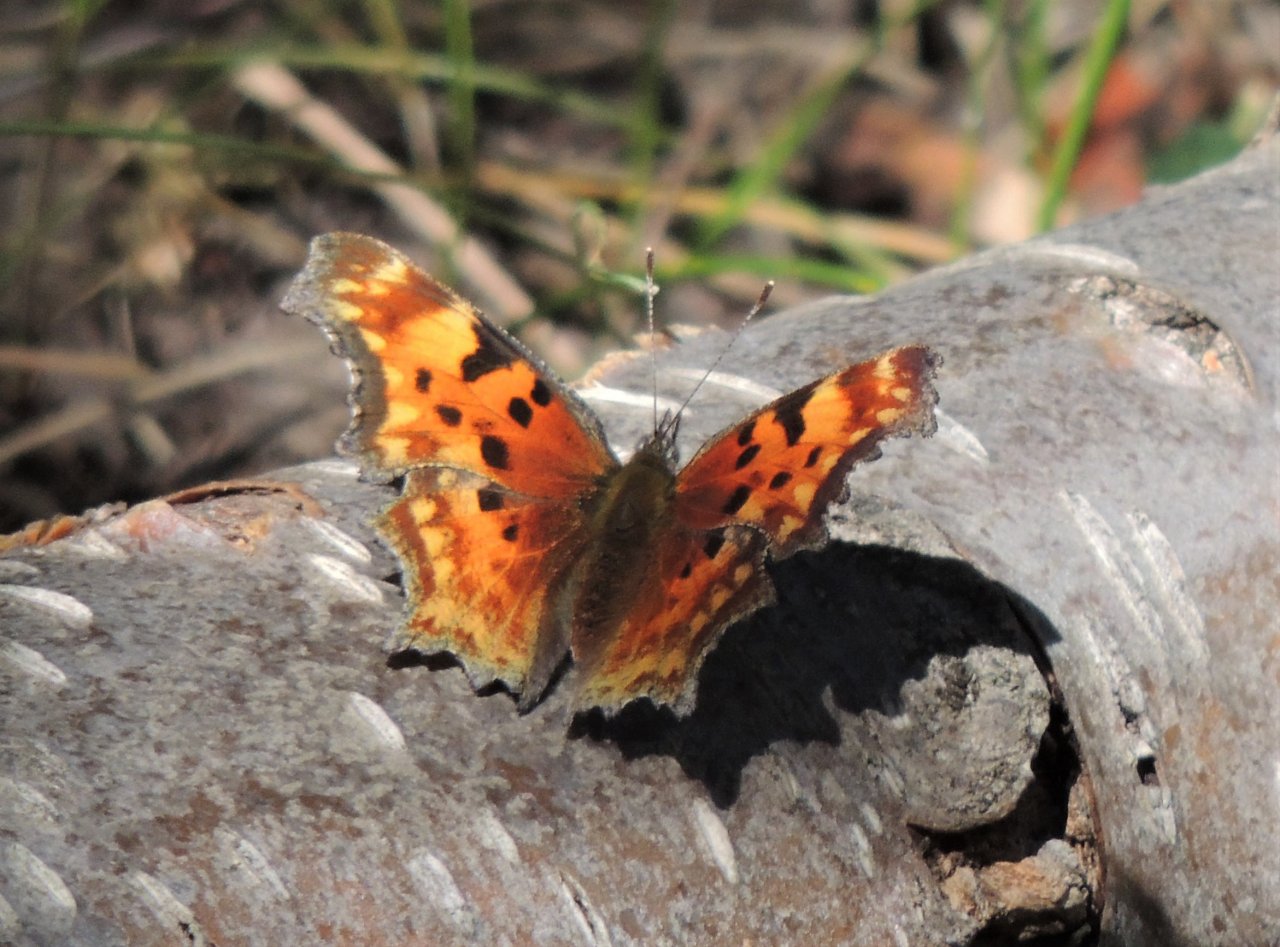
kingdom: Animalia
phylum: Arthropoda
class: Insecta
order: Lepidoptera
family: Nymphalidae
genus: Polygonia
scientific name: Polygonia gracilis
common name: Hoary Comma
